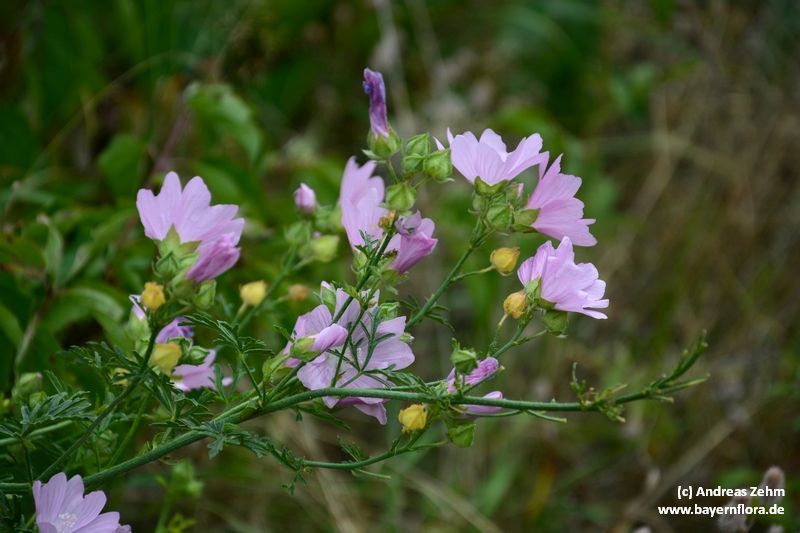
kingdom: Plantae
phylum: Tracheophyta
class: Magnoliopsida
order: Malvales
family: Malvaceae
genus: Malva
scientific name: Malva alcea
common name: Greater musk-mallow
